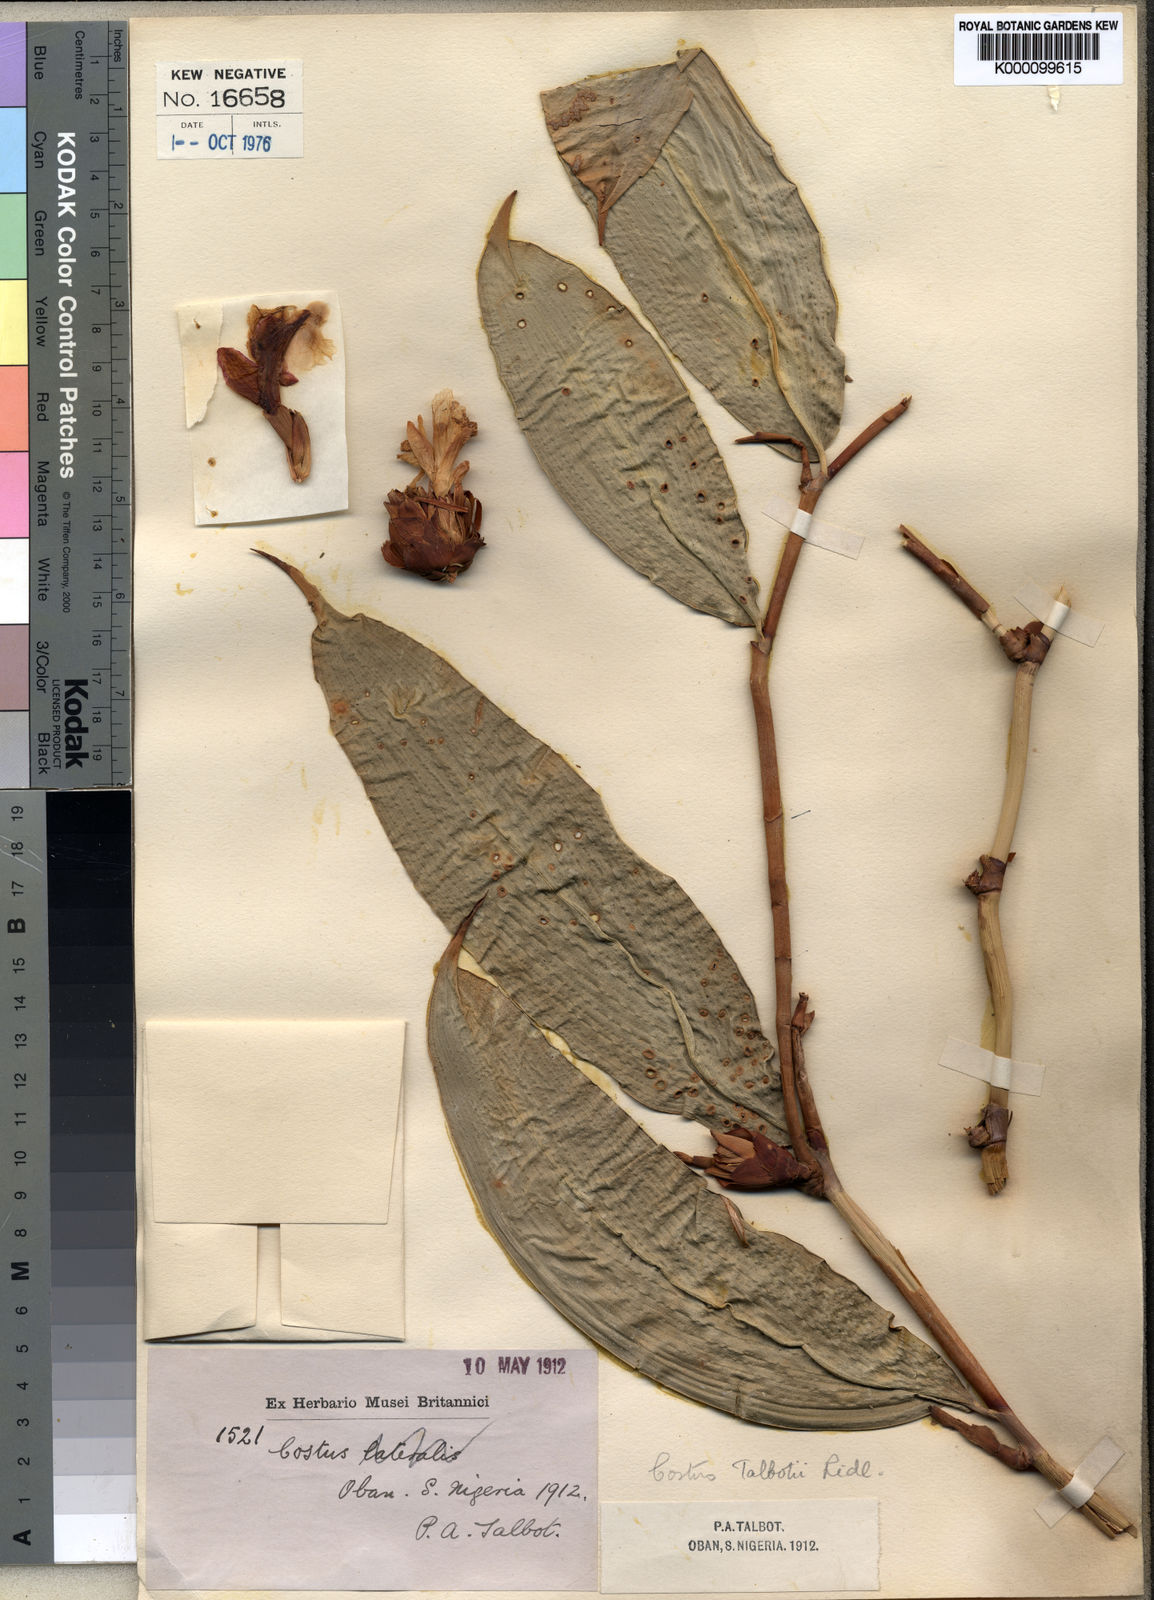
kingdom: Plantae
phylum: Tracheophyta
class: Liliopsida
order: Zingiberales
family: Costaceae
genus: Costus
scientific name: Costus talbotii
